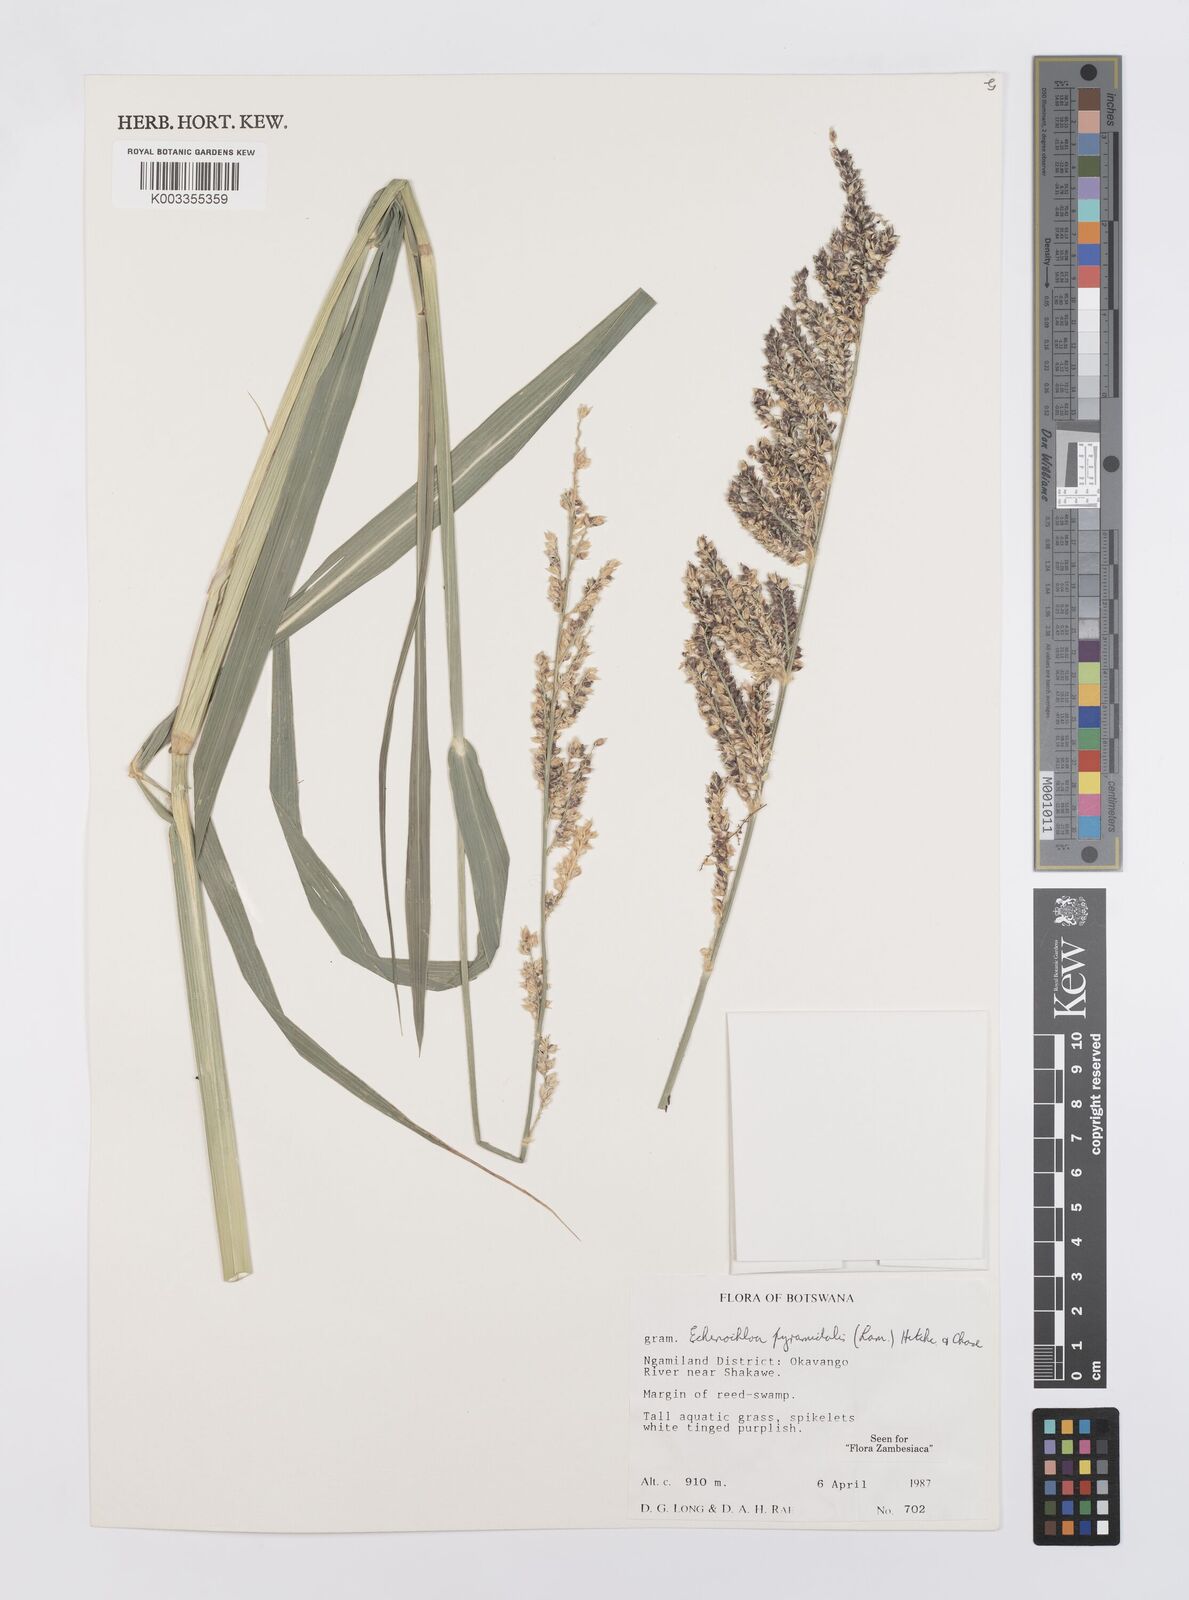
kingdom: Plantae
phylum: Tracheophyta
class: Liliopsida
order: Poales
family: Poaceae
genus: Echinochloa
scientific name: Echinochloa pyramidalis
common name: Antelope grass
